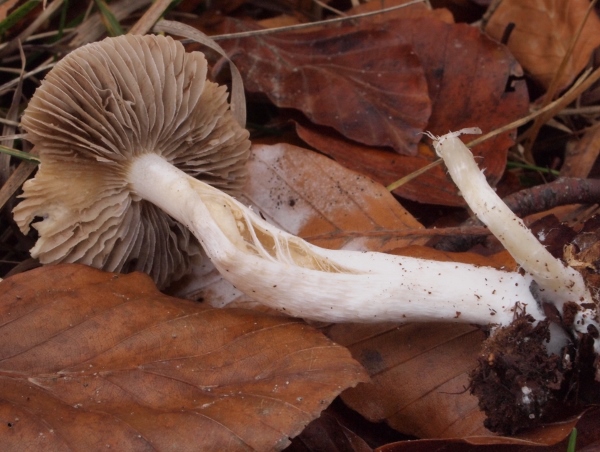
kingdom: Fungi
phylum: Basidiomycota
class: Agaricomycetes
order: Agaricales
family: Inocybaceae
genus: Inocybe
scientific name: Inocybe
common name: almindelig trævlhat
